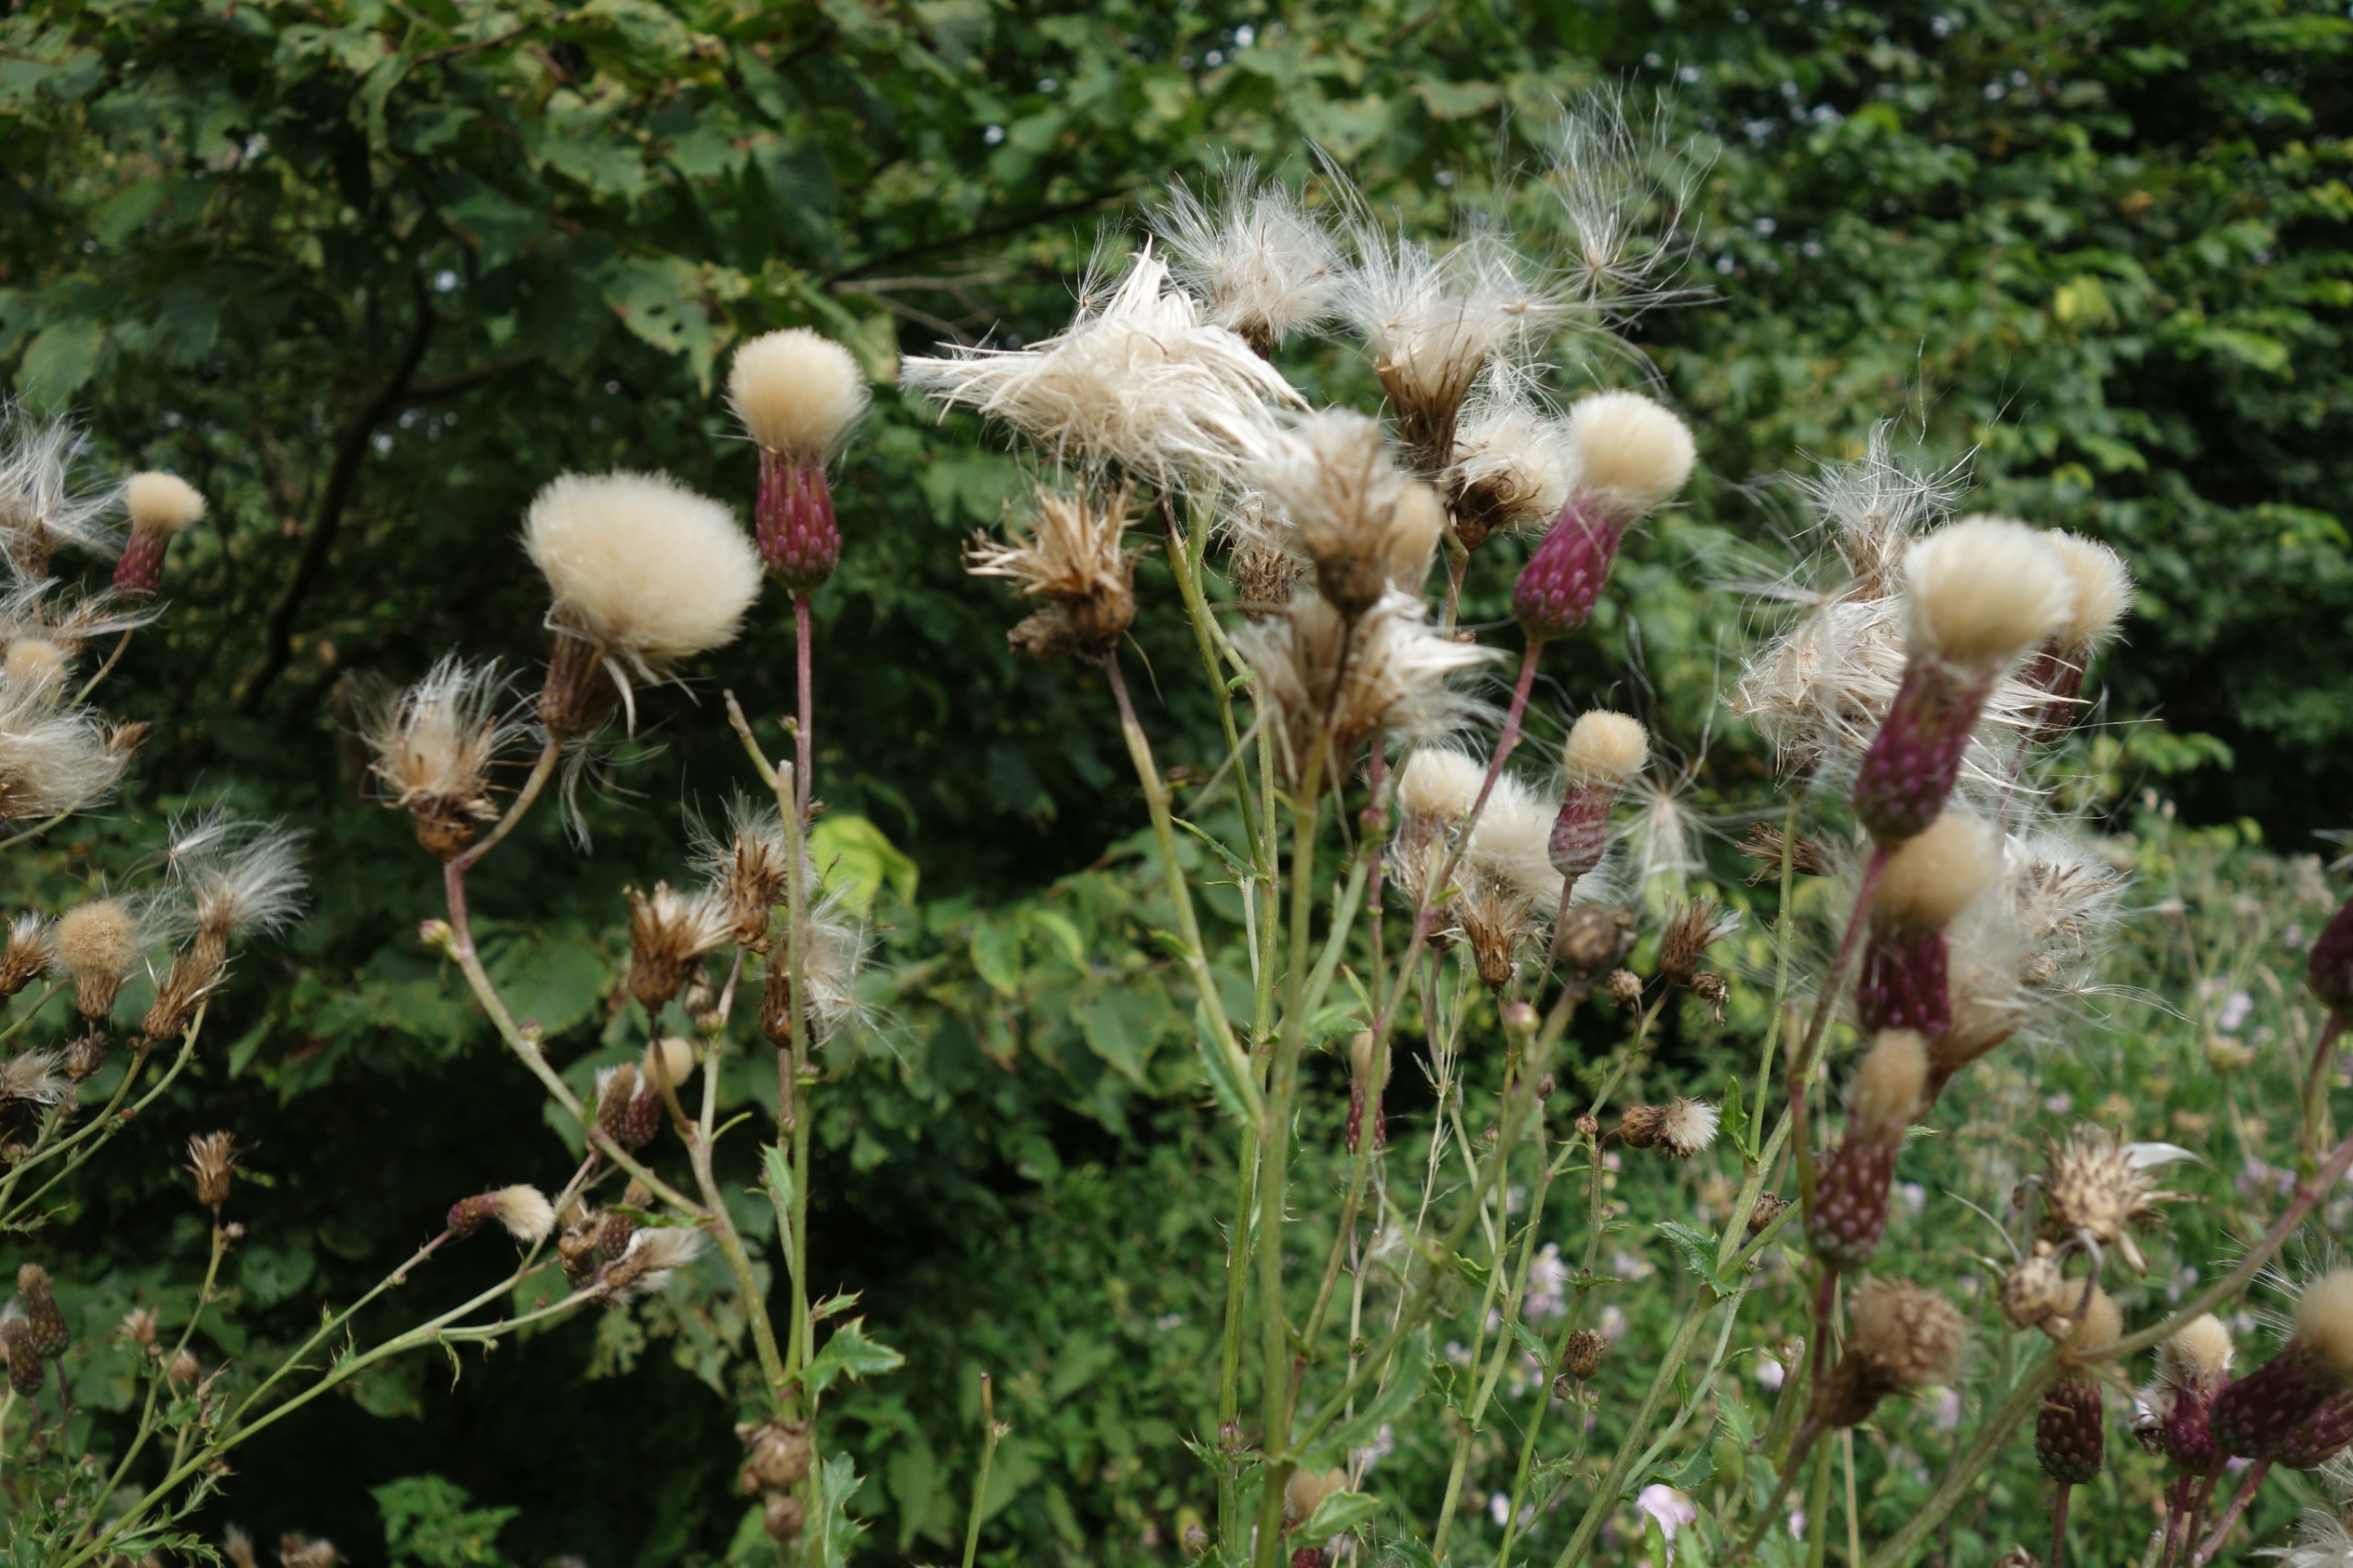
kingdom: Plantae
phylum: Tracheophyta
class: Magnoliopsida
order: Asterales
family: Asteraceae
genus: Cirsium
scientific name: Cirsium arvense
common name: Ager-tidsel
